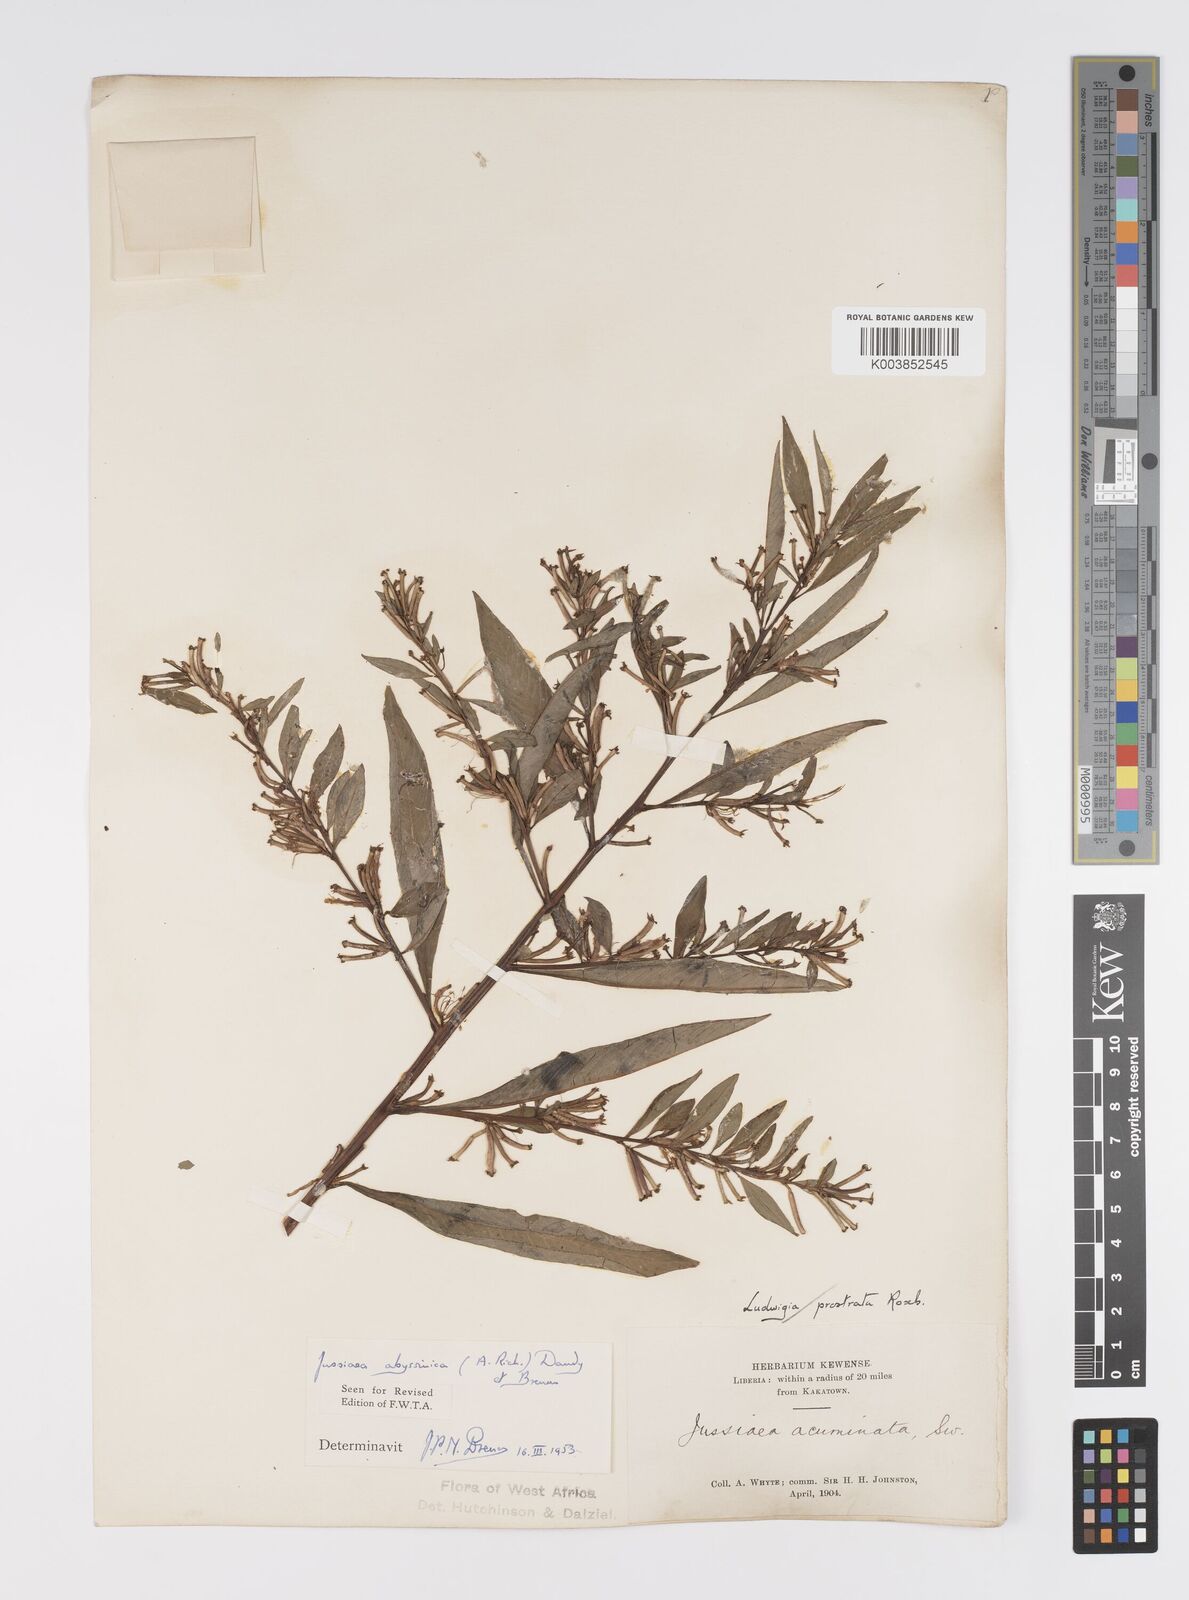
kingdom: Plantae
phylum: Tracheophyta
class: Magnoliopsida
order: Myrtales
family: Onagraceae
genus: Ludwigia
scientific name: Ludwigia abyssinica
